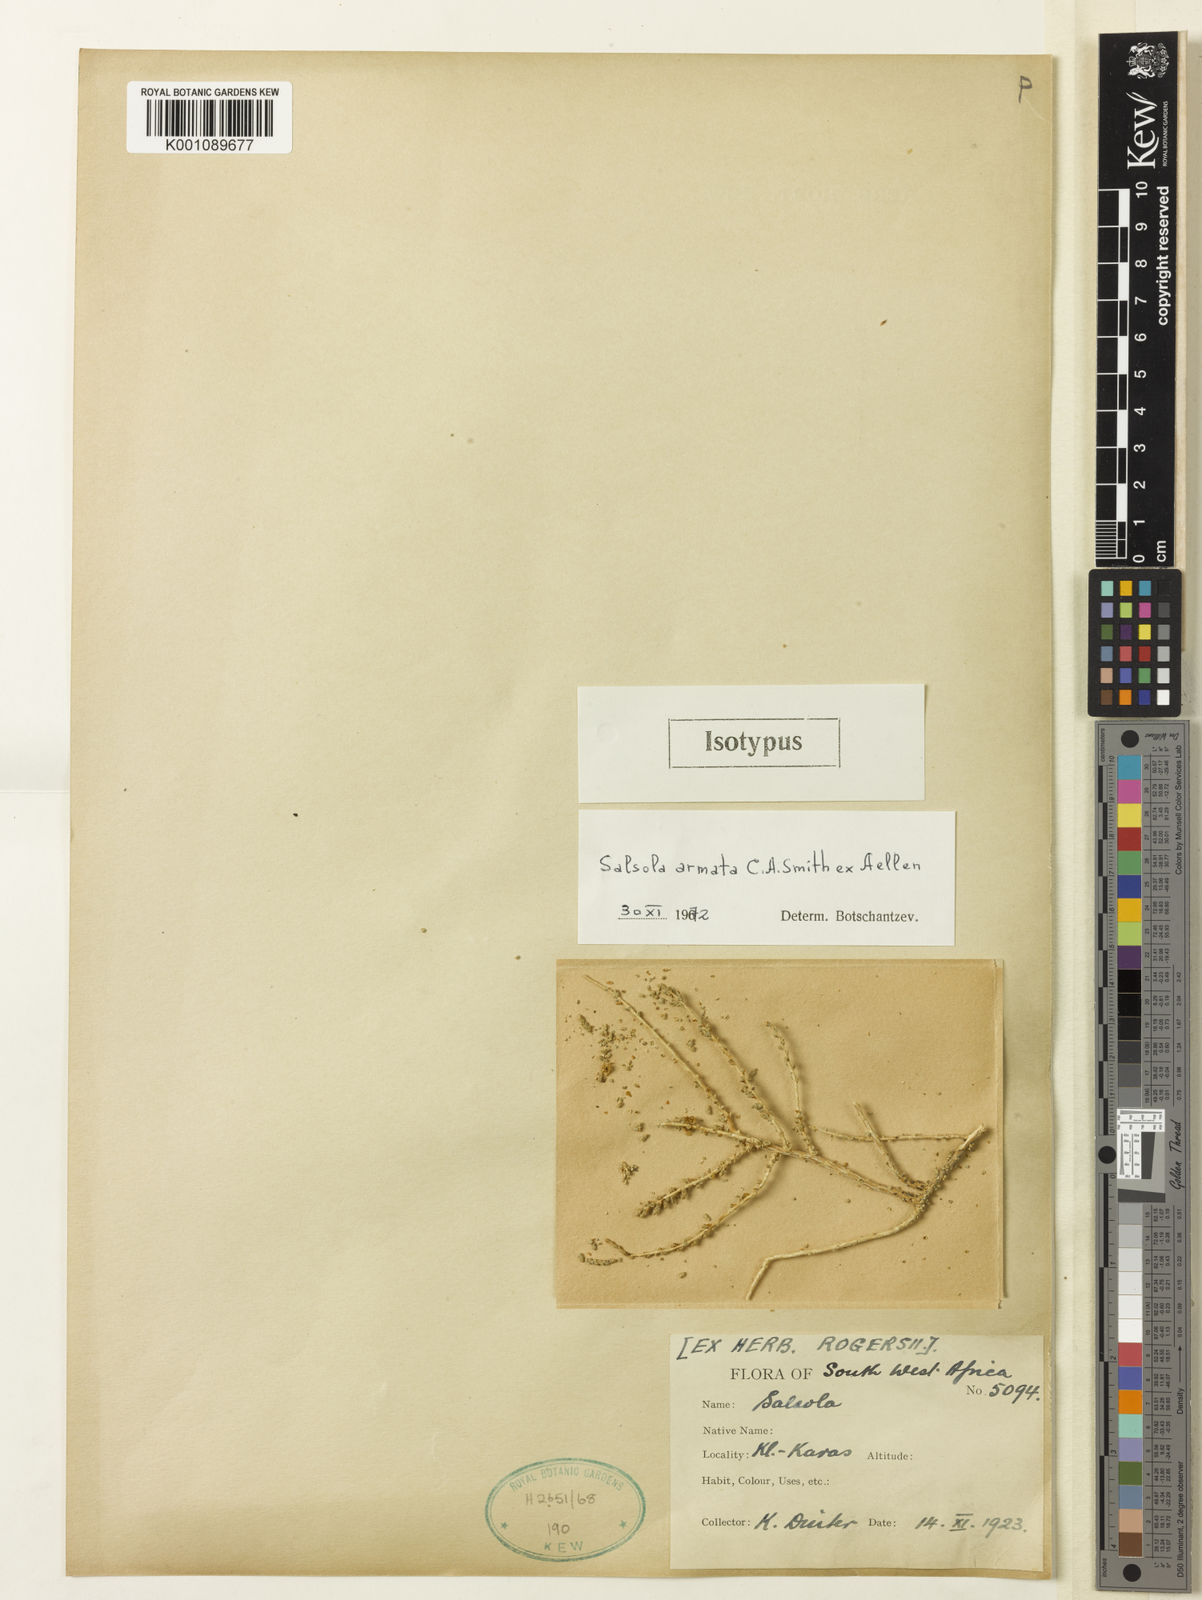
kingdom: Plantae
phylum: Tracheophyta
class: Magnoliopsida
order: Caryophyllales
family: Amaranthaceae
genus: Caroxylon
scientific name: Caroxylon armatum
